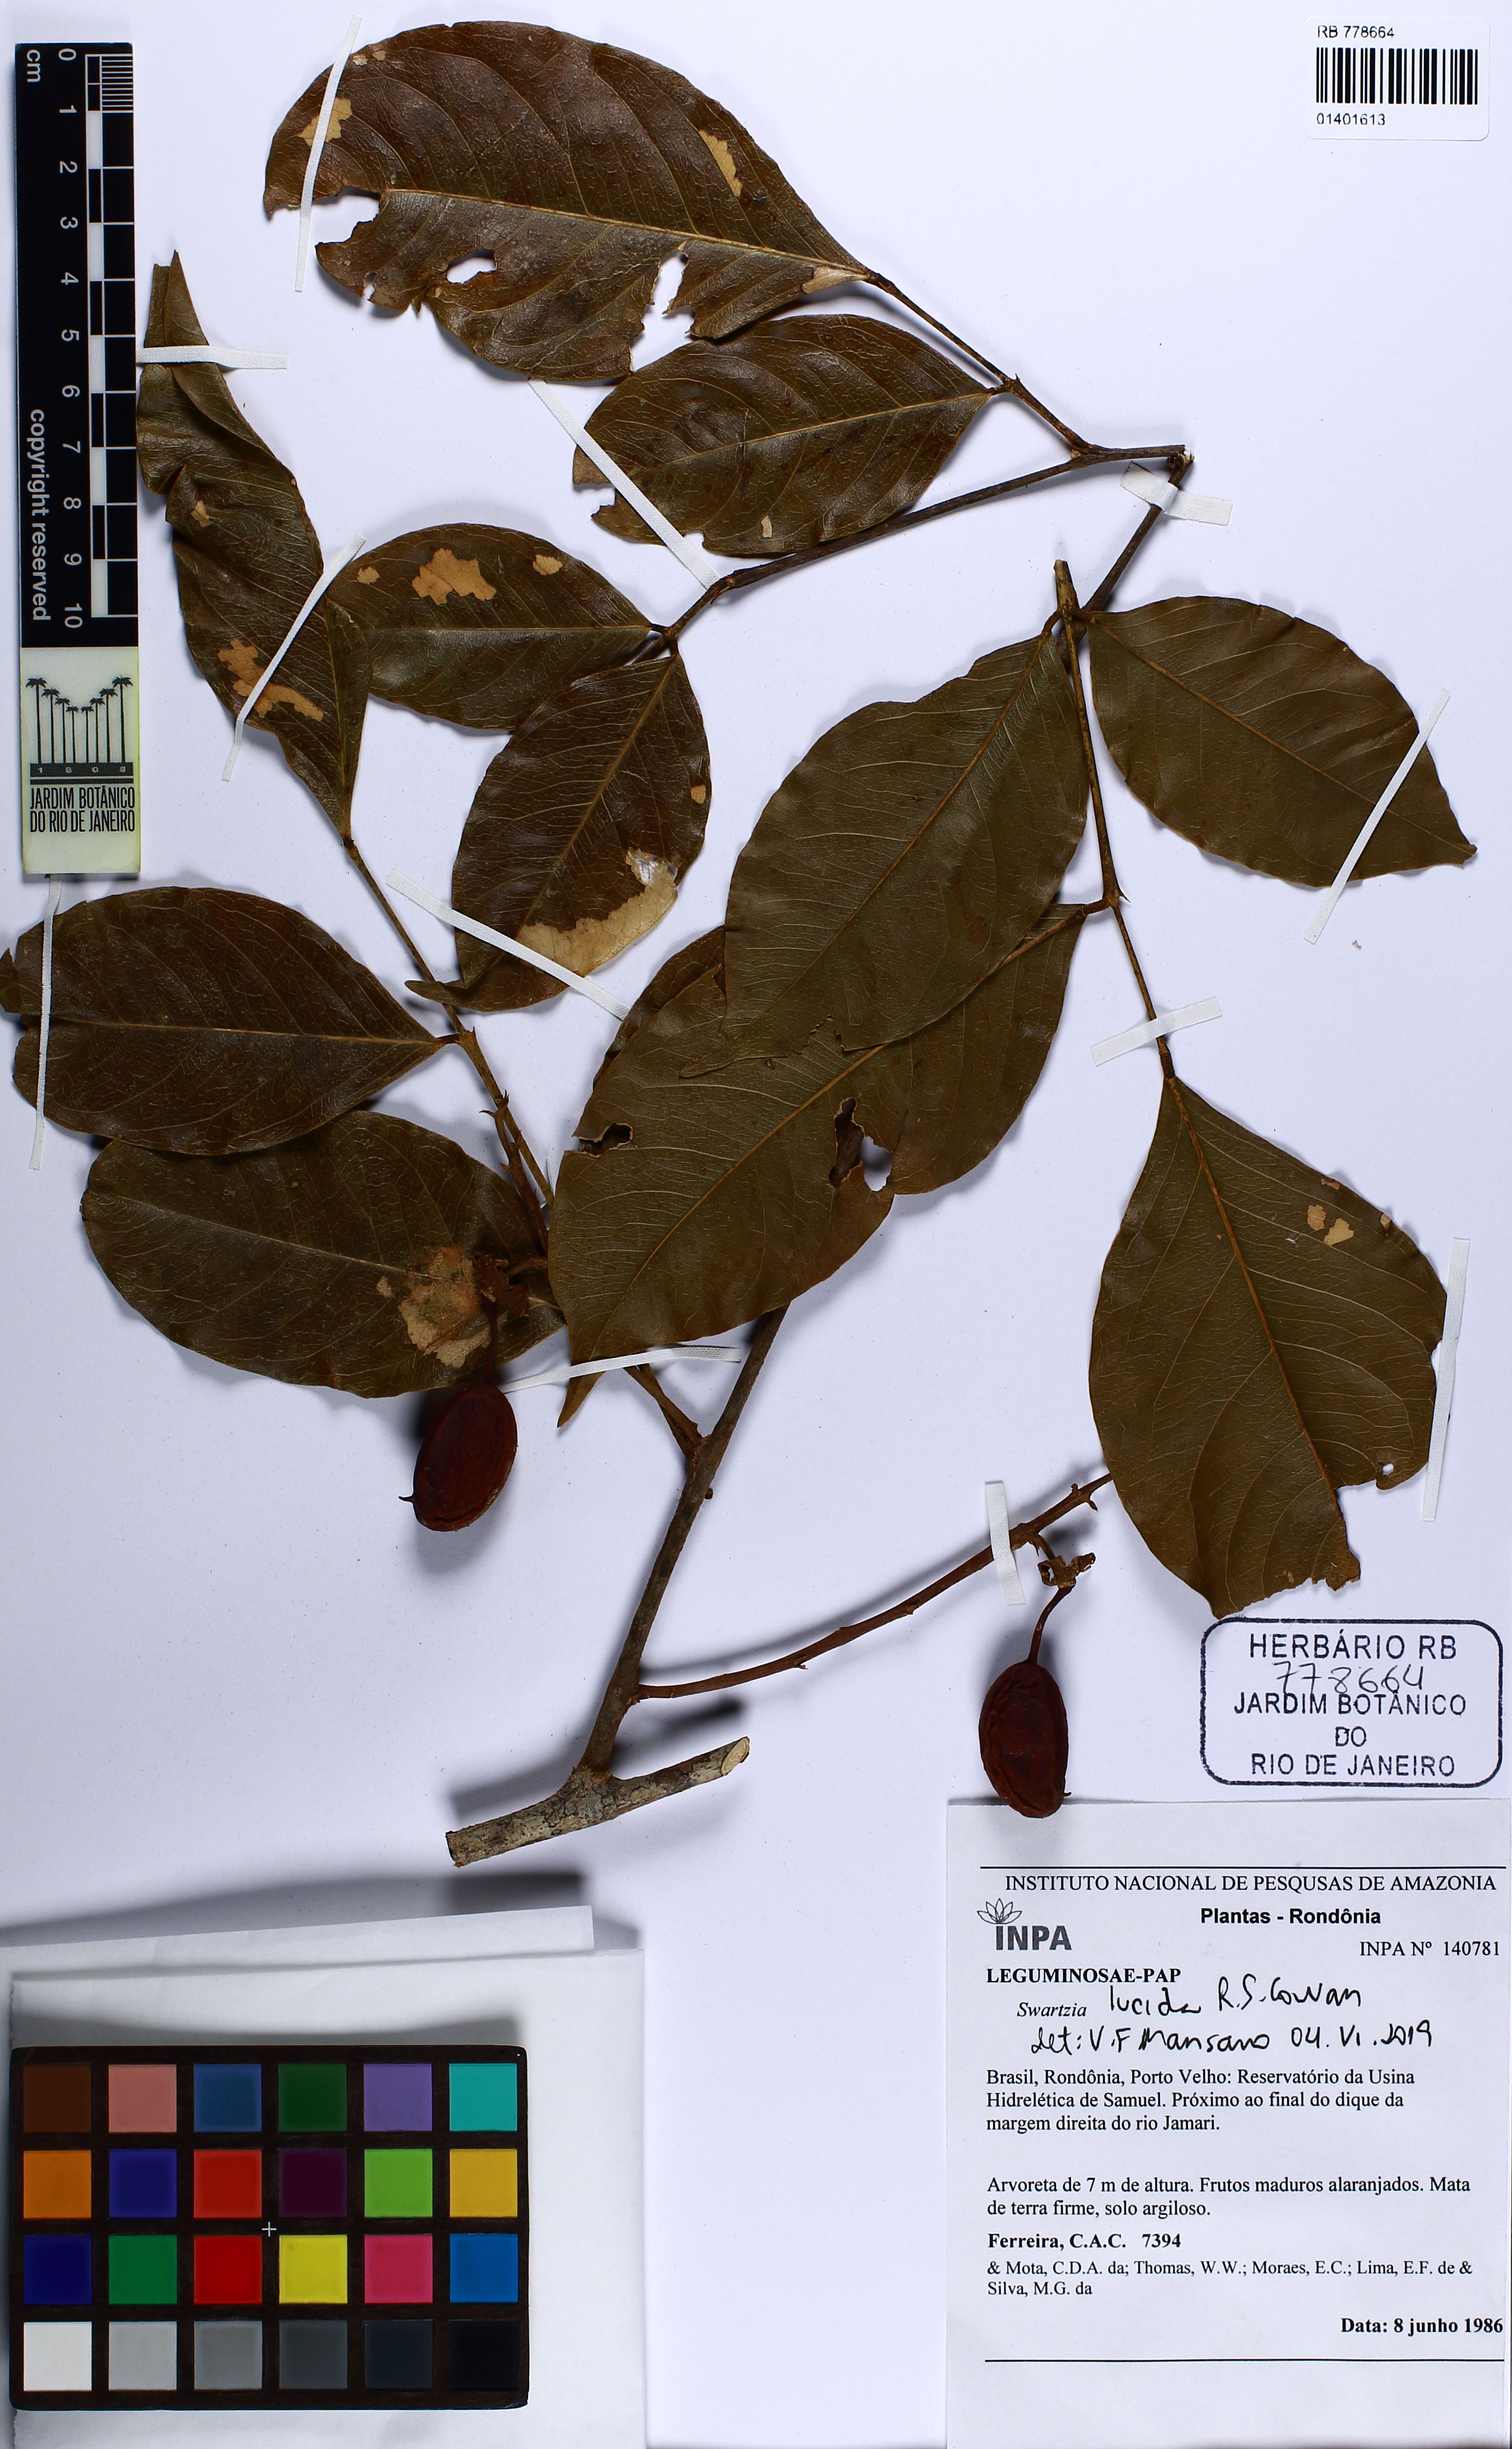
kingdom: Plantae
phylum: Tracheophyta
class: Magnoliopsida
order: Fabales
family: Fabaceae
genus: Swartzia
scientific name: Swartzia lucida
